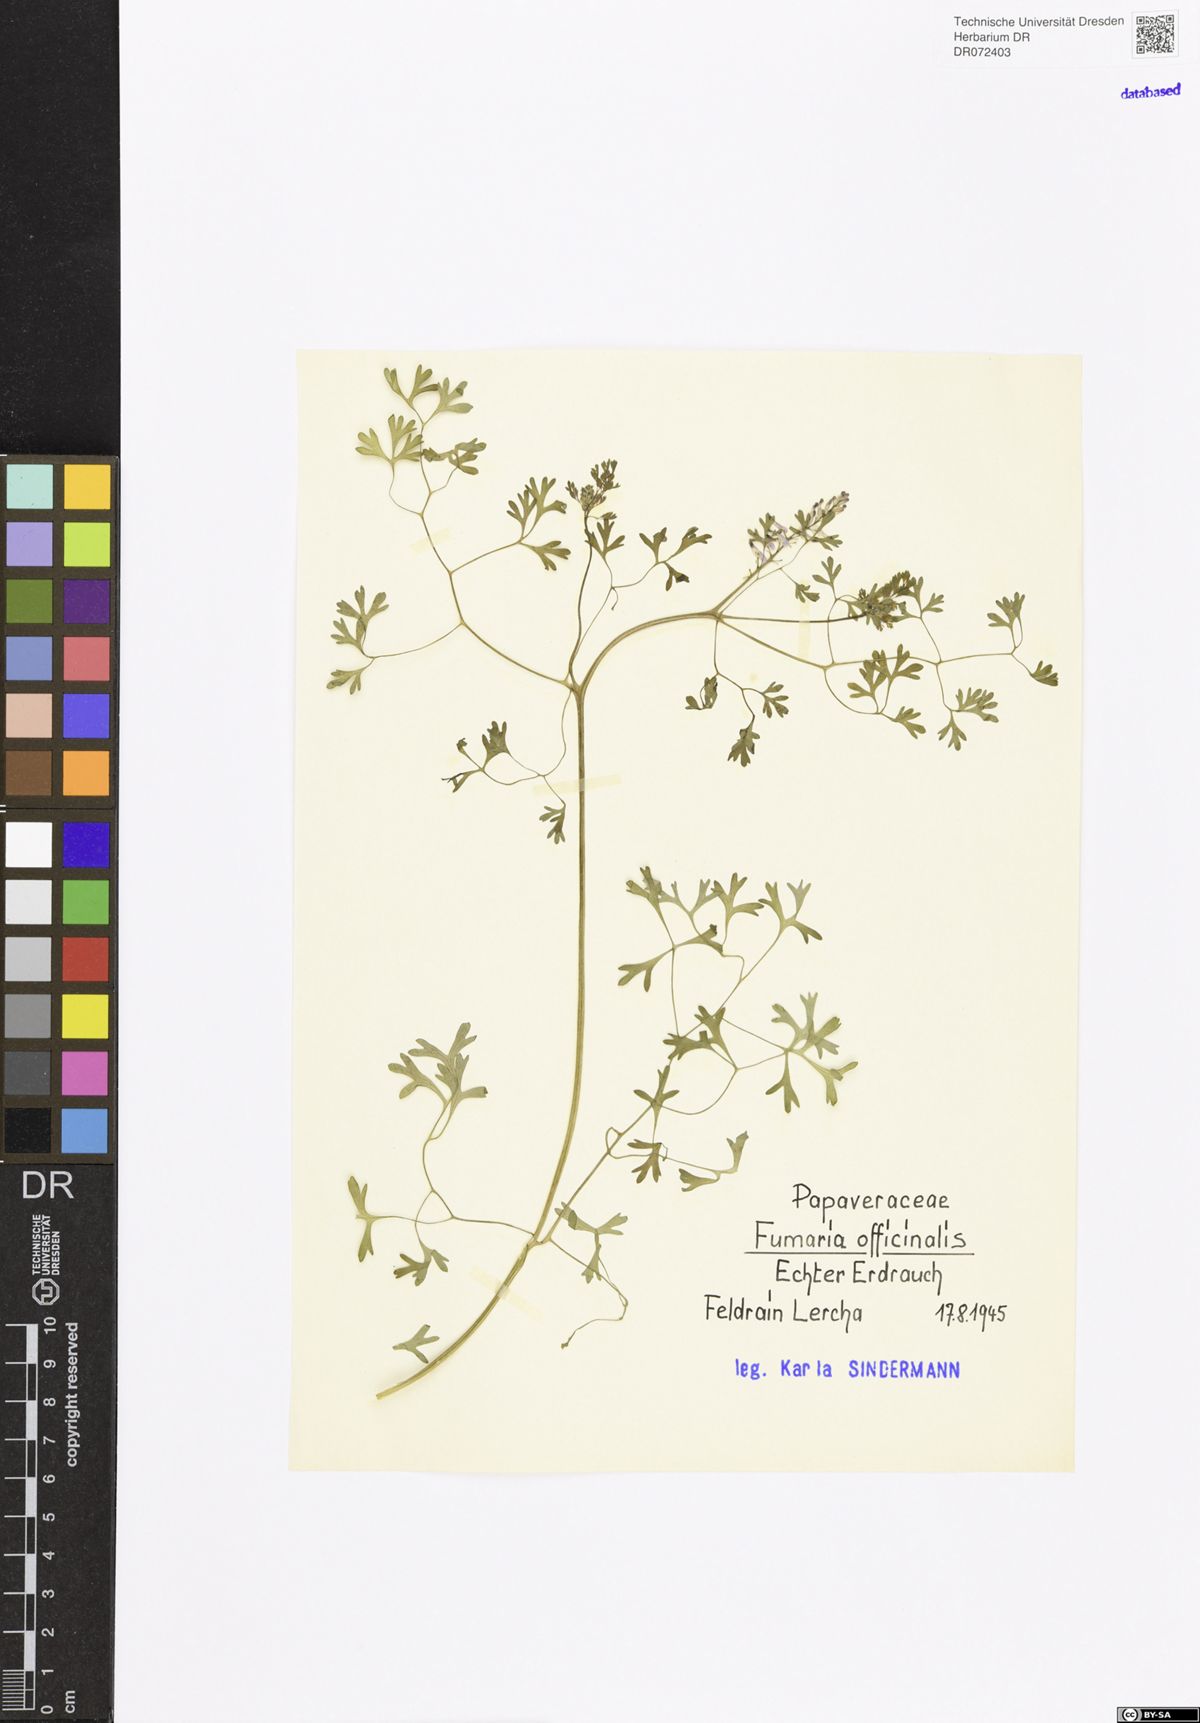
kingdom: Plantae
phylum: Tracheophyta
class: Magnoliopsida
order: Ranunculales
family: Papaveraceae
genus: Fumaria
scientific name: Fumaria officinalis
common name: Common fumitory
